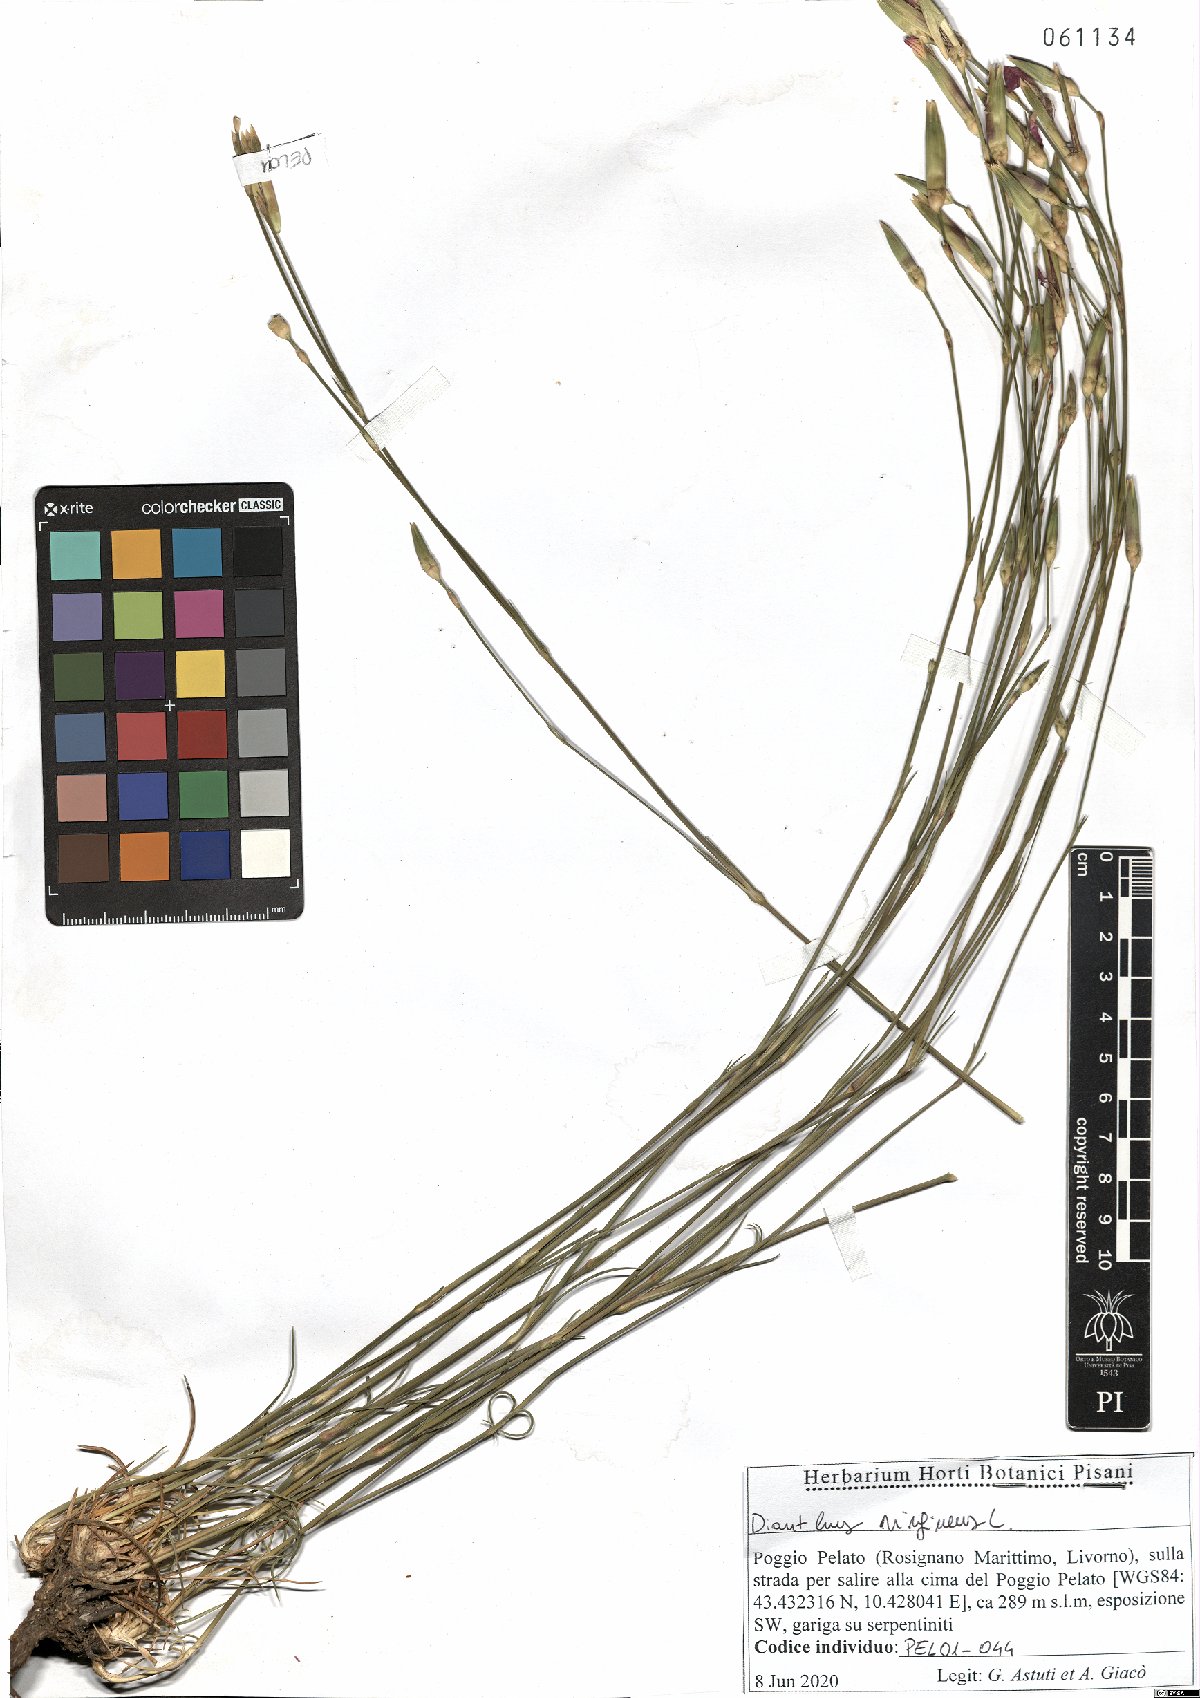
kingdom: Plantae
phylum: Tracheophyta
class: Magnoliopsida
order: Caryophyllales
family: Caryophyllaceae
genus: Dianthus
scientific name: Dianthus virgineus
